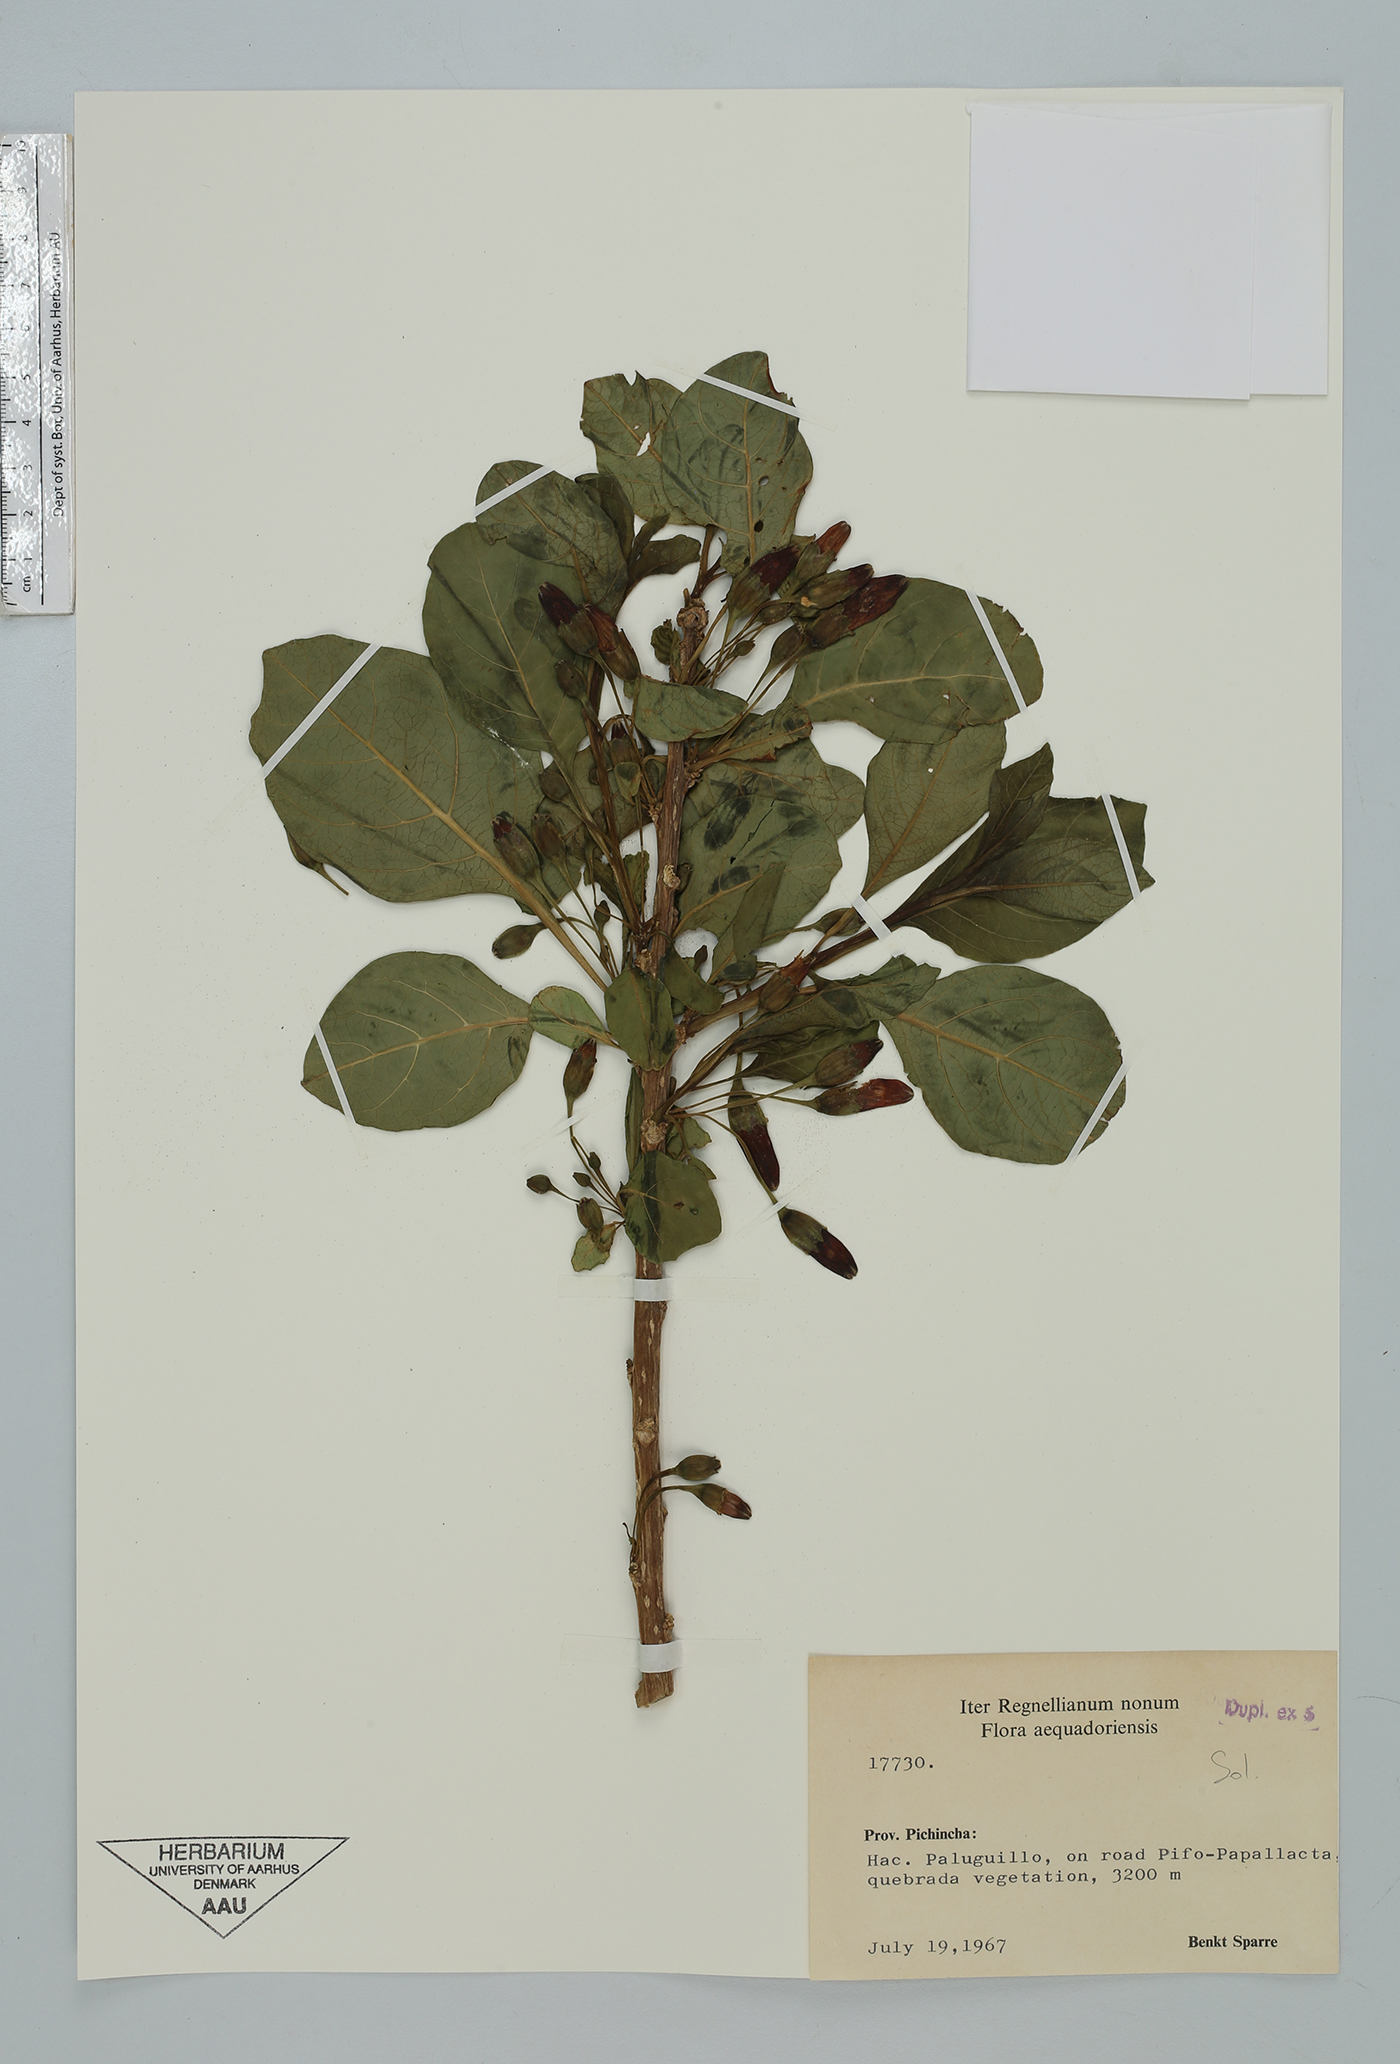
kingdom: Plantae
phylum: Tracheophyta
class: Magnoliopsida
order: Solanales
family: Solanaceae
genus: Iochroma
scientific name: Iochroma
